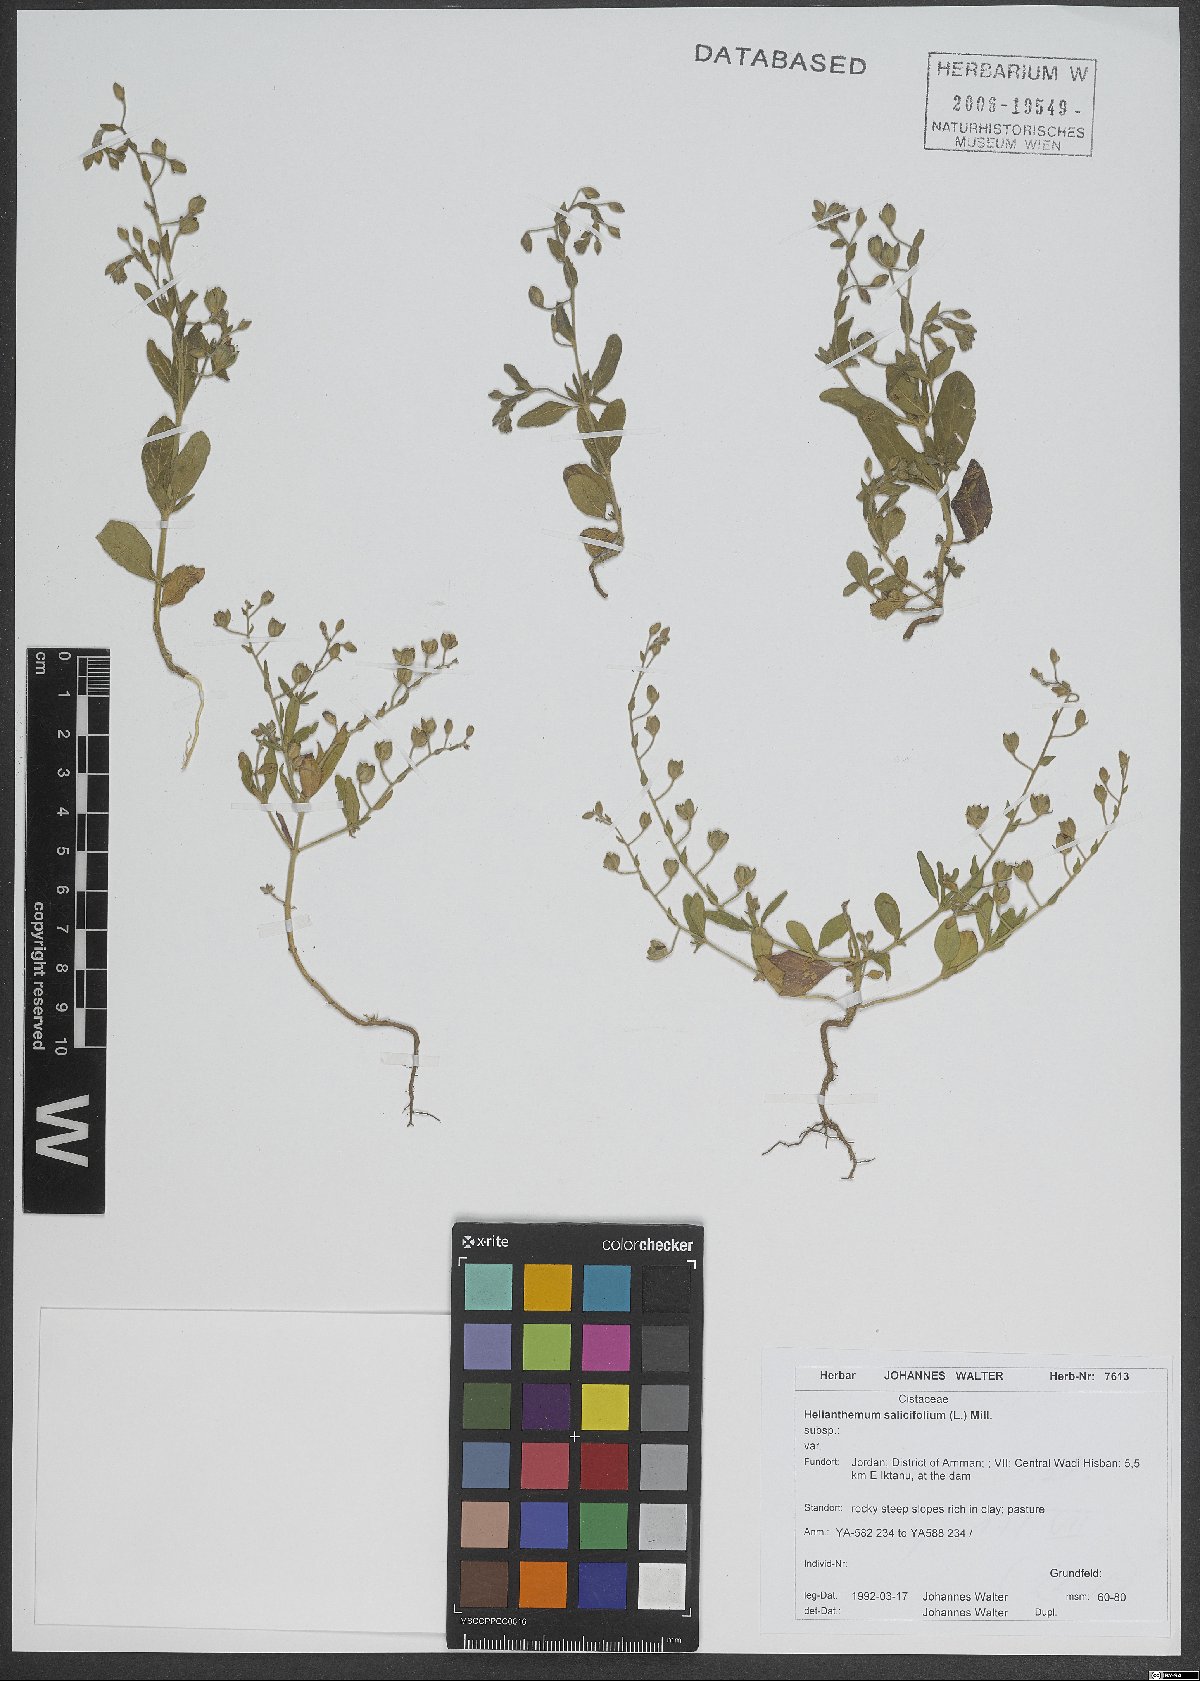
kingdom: Plantae
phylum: Tracheophyta
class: Magnoliopsida
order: Malvales
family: Cistaceae
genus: Helianthemum
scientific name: Helianthemum salicifolium
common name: Willowleaf frostweed
